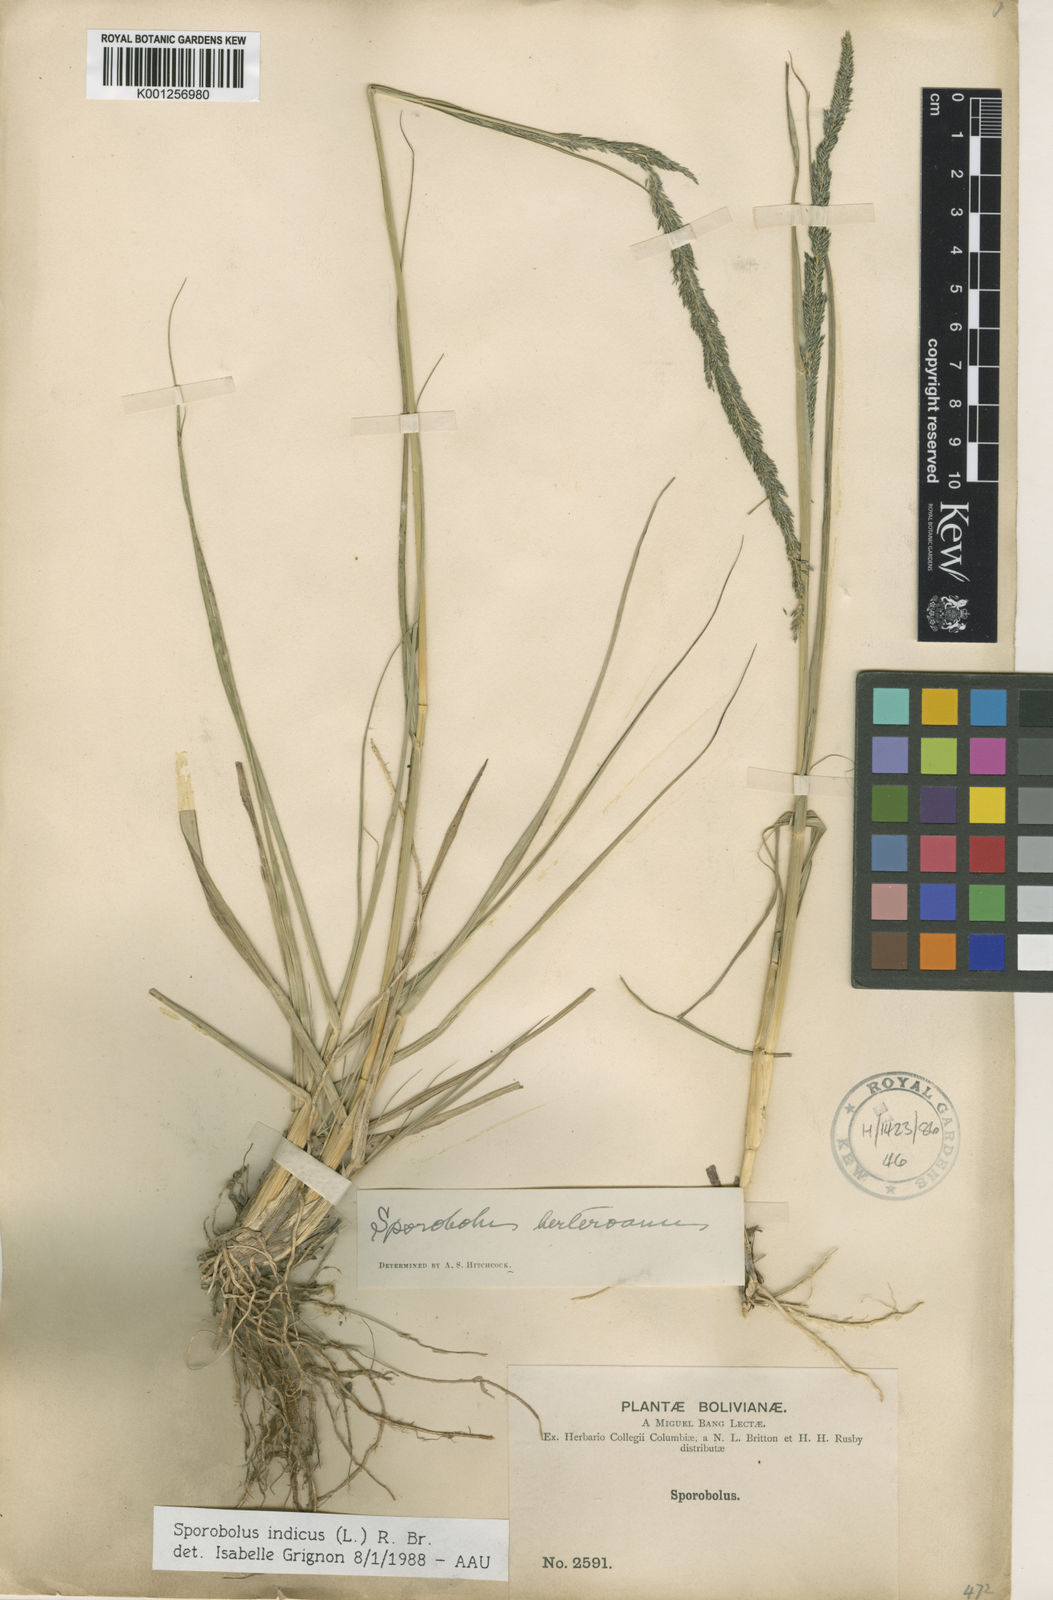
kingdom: Plantae
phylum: Tracheophyta
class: Liliopsida
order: Poales
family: Poaceae
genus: Sporobolus
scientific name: Sporobolus indicus
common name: Smut grass
